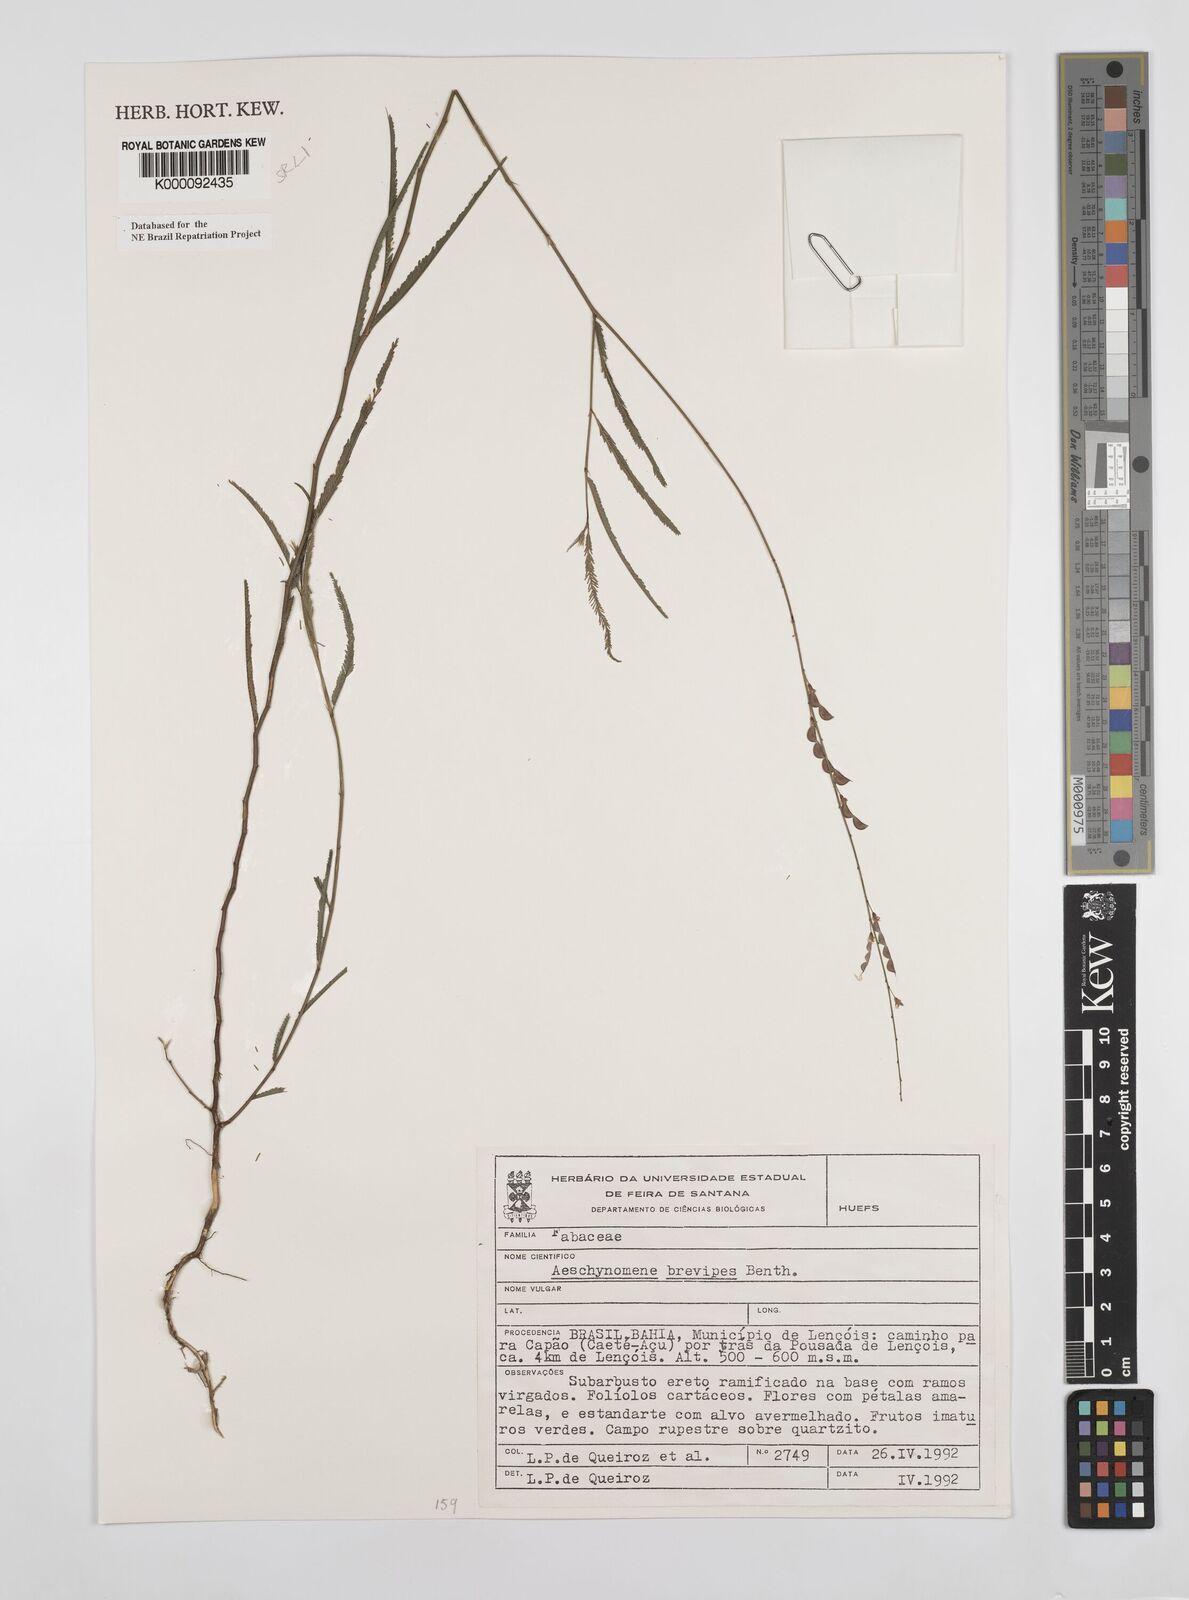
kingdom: Plantae
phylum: Tracheophyta
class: Magnoliopsida
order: Fabales
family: Fabaceae
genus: Ctenodon
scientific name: Ctenodon brevipes
